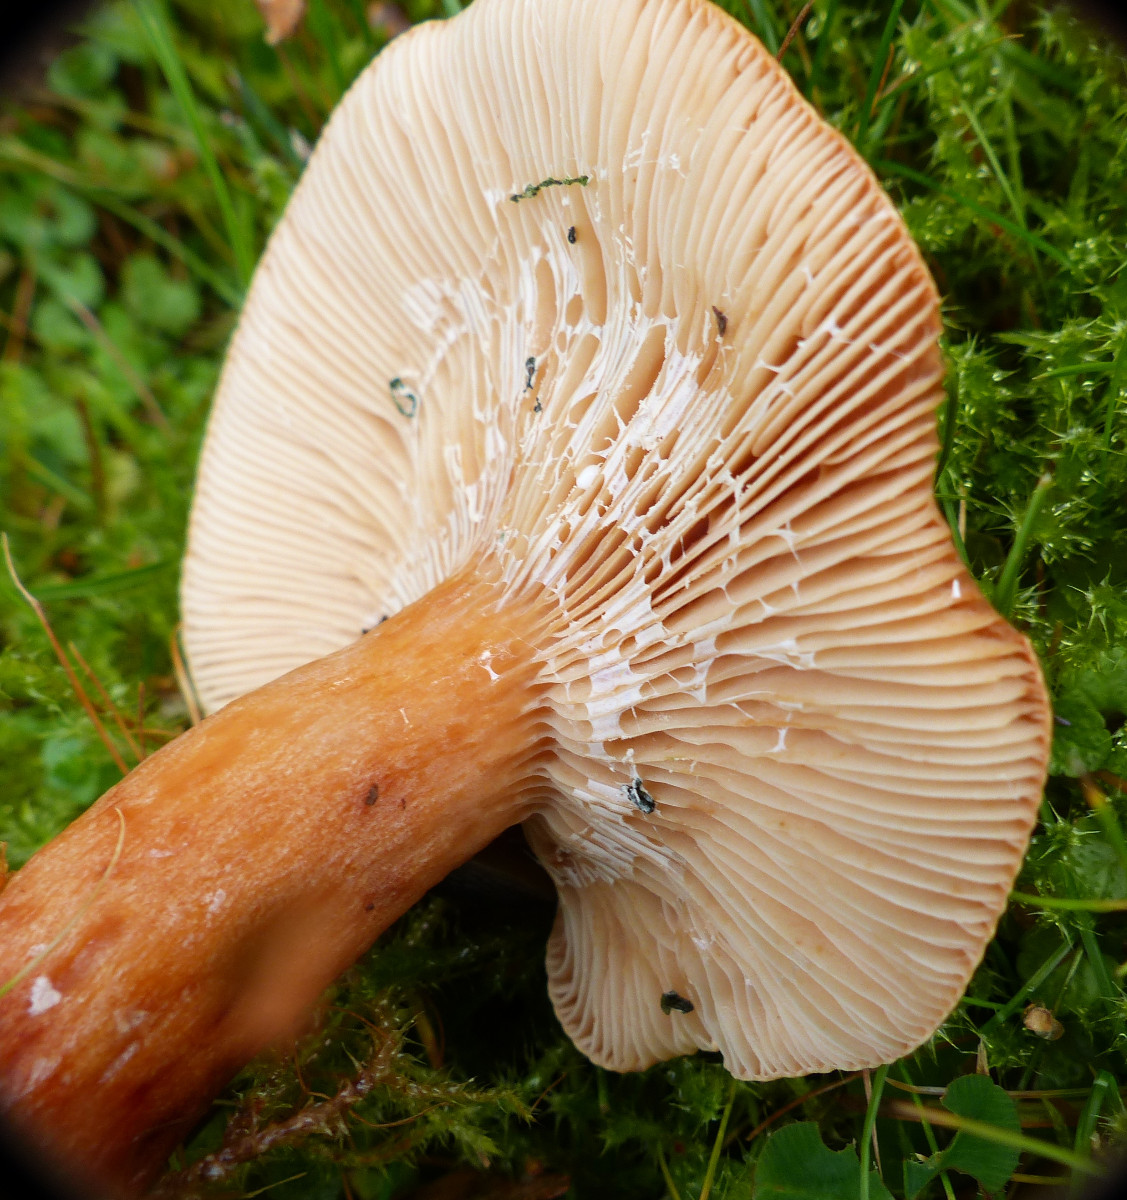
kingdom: Fungi
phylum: Basidiomycota
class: Agaricomycetes
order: Russulales
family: Russulaceae
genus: Lactarius
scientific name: Lactarius fulvissimus
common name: ræve-mælkehat
